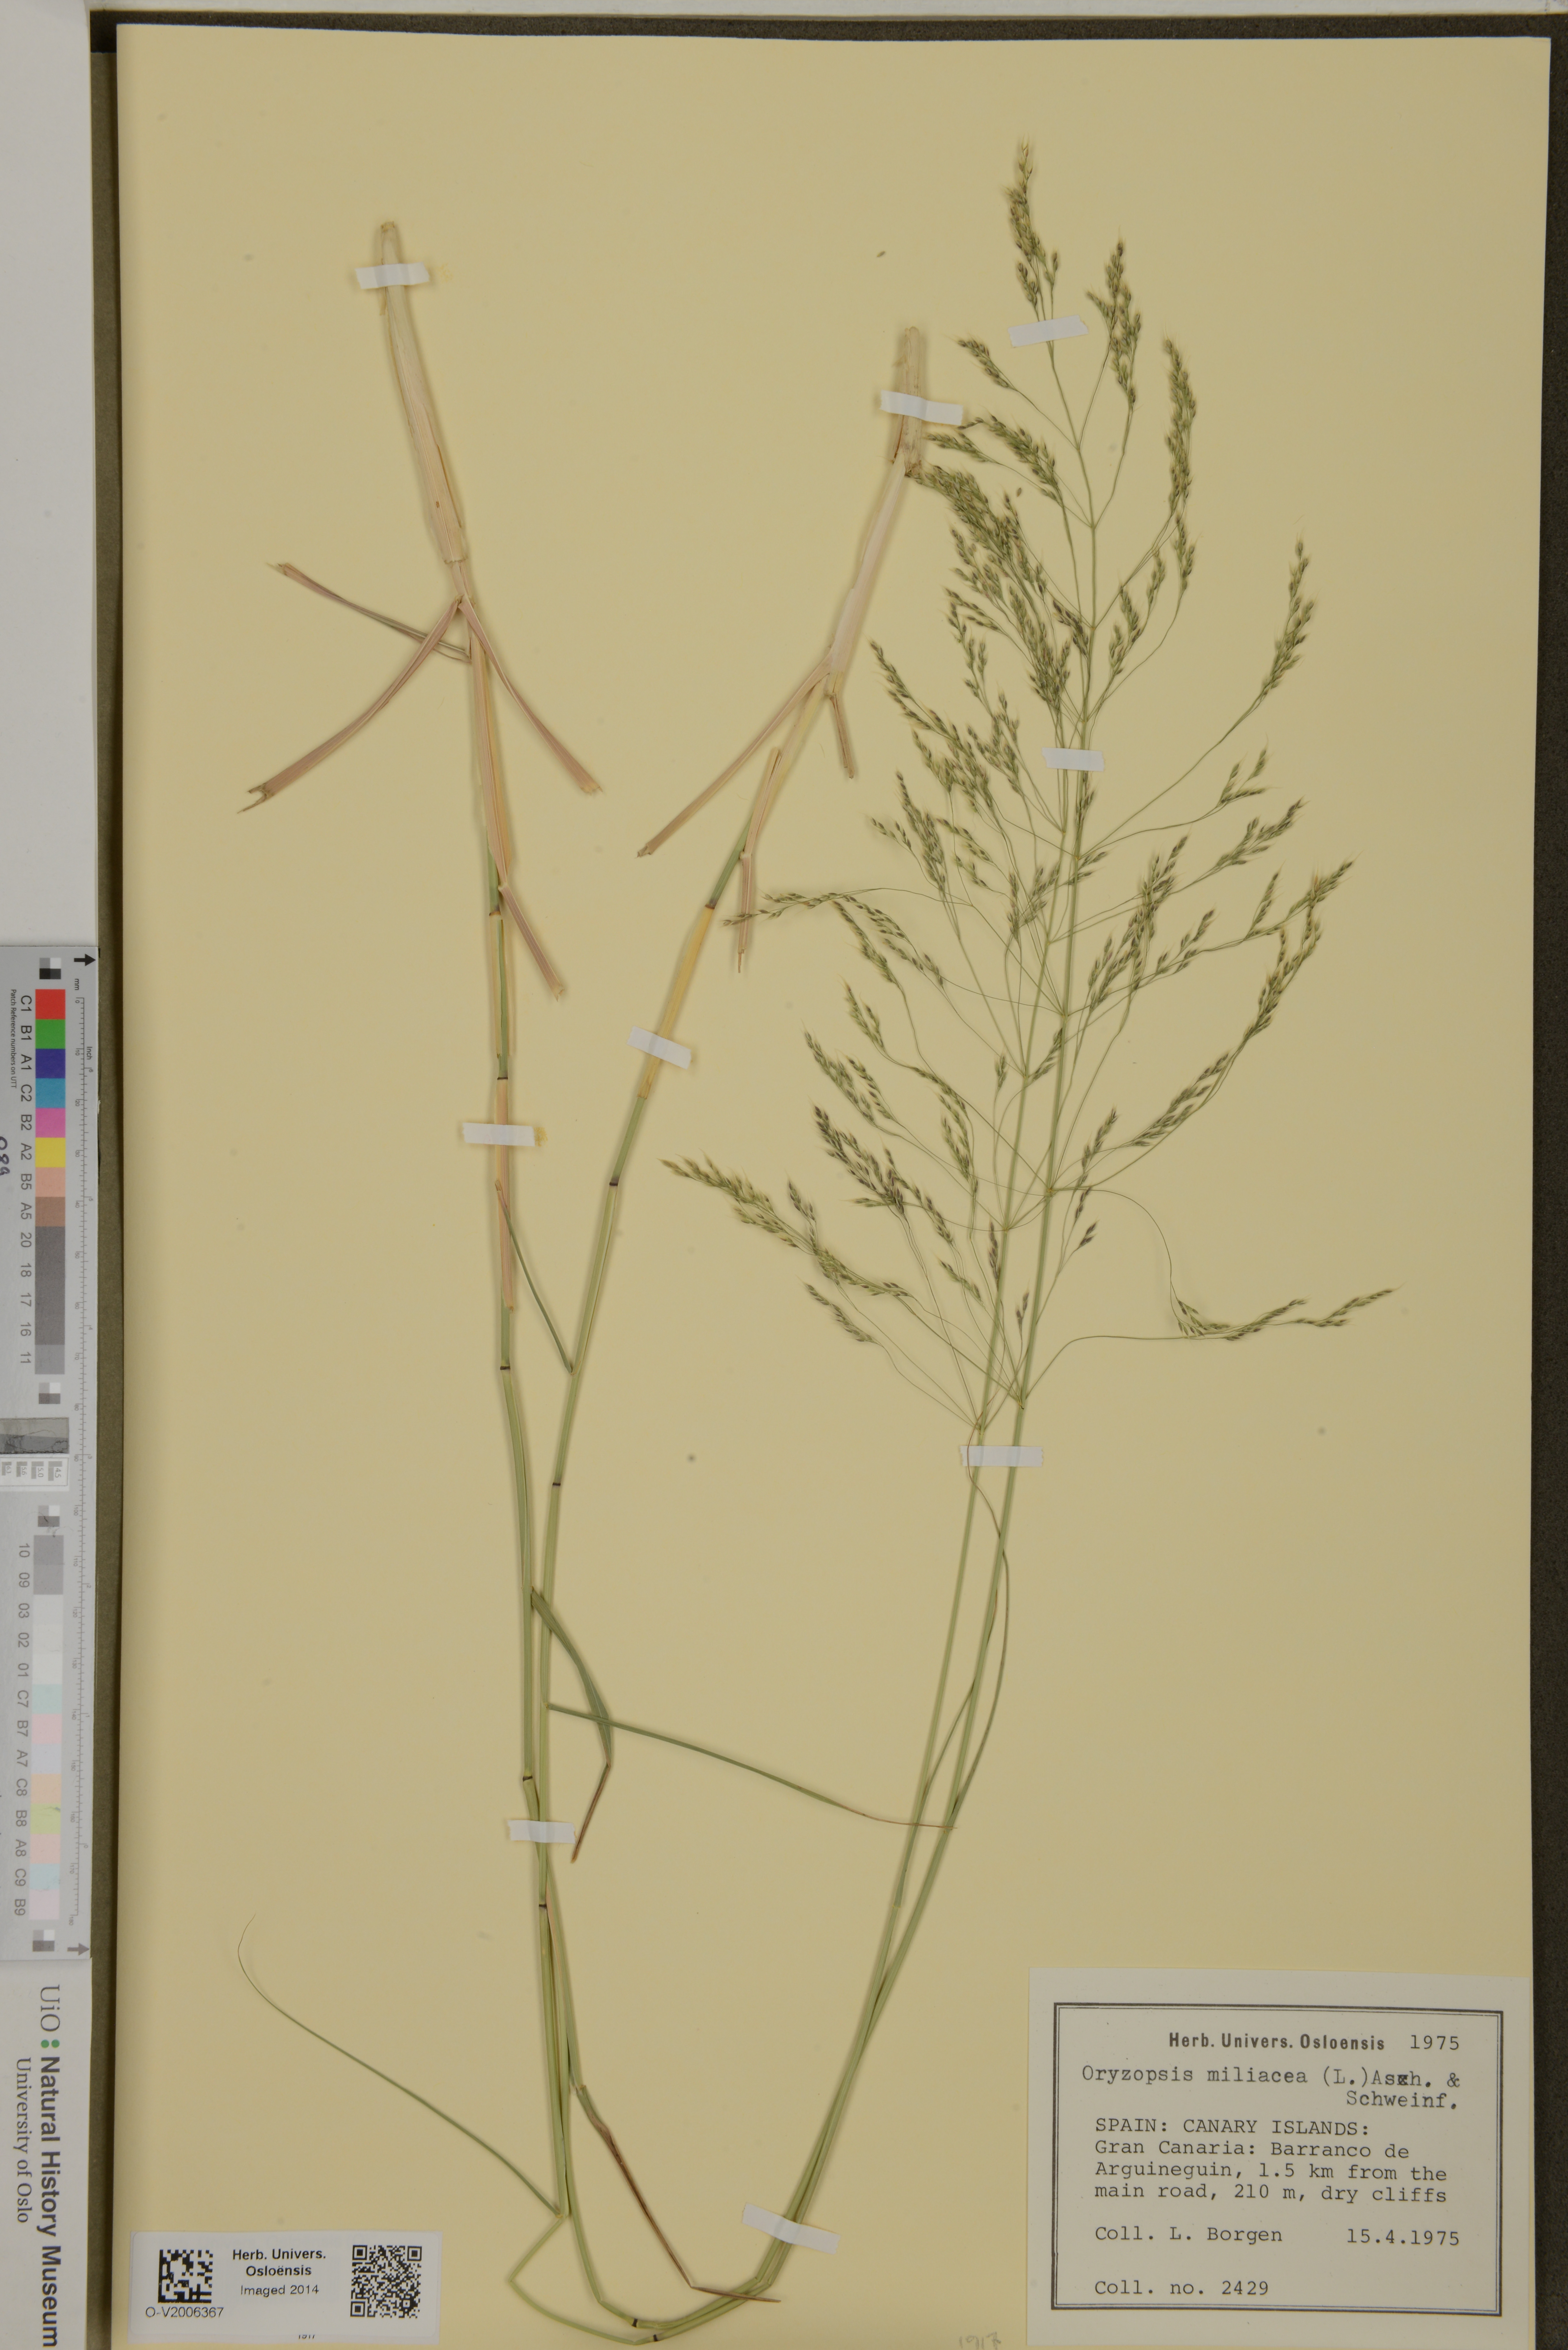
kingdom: Plantae
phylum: Tracheophyta
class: Liliopsida
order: Poales
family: Poaceae
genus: Oloptum
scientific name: Oloptum miliaceum
